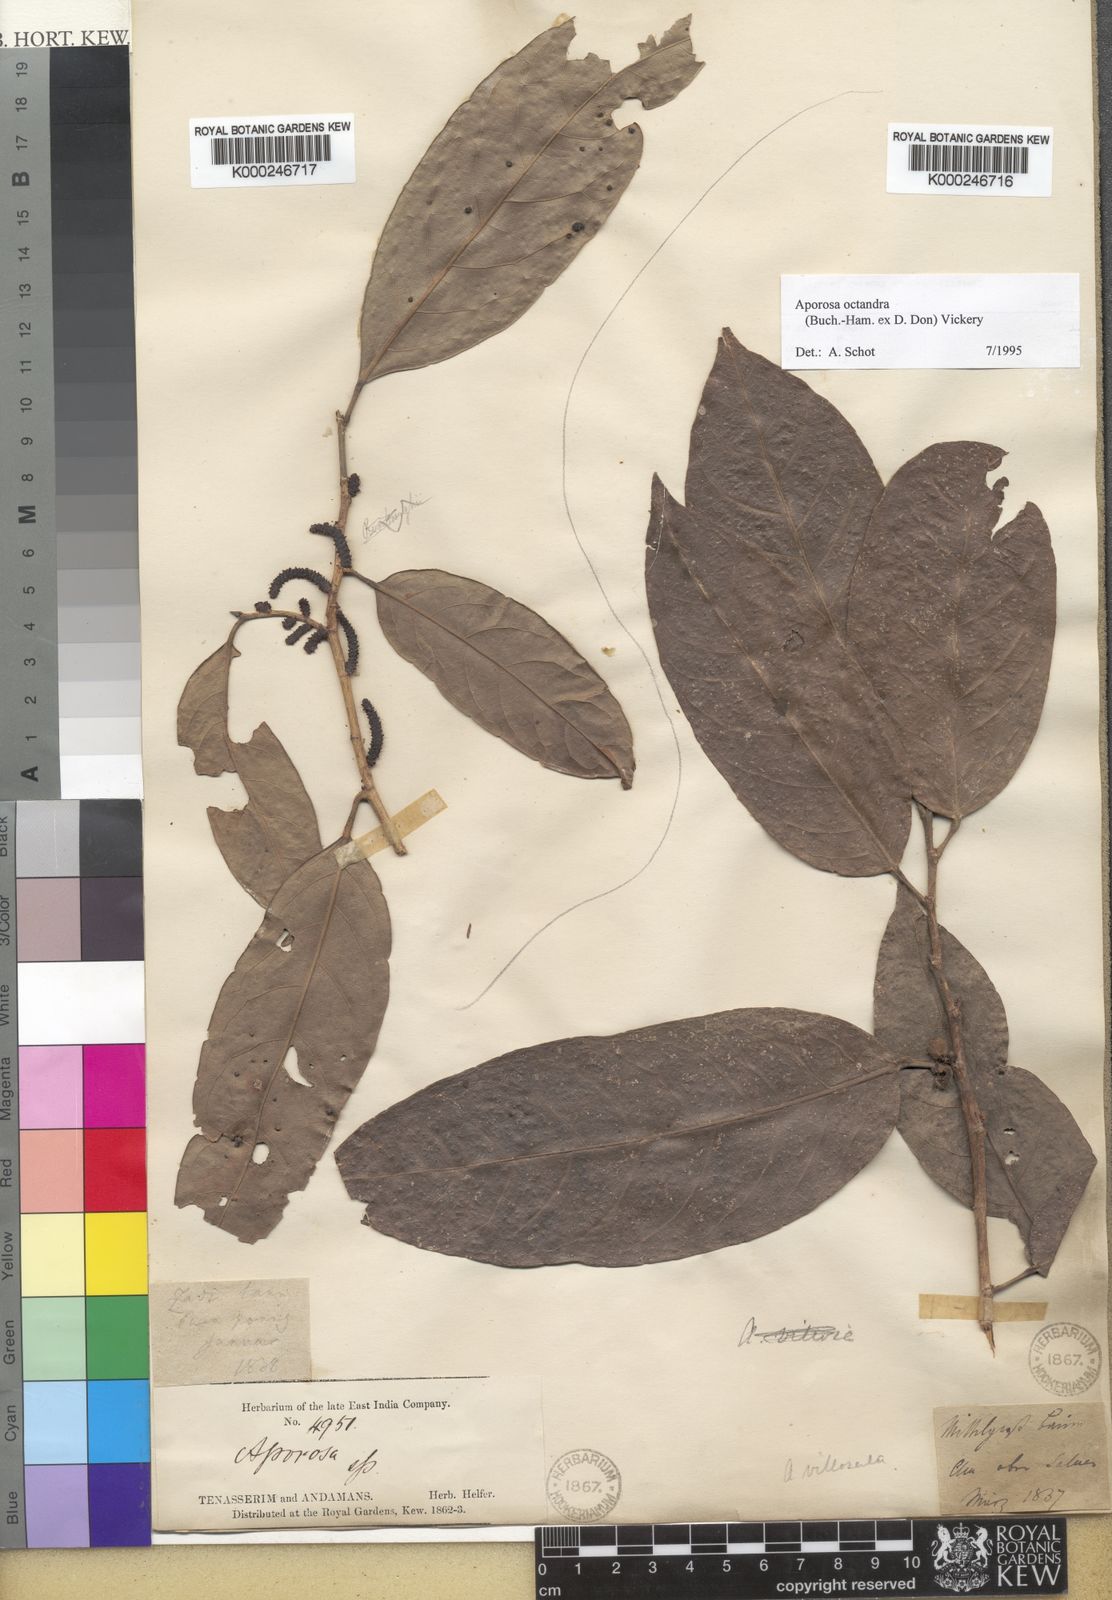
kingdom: Plantae
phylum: Tracheophyta
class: Magnoliopsida
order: Malpighiales
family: Phyllanthaceae
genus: Aporosa
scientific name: Aporosa octandra
